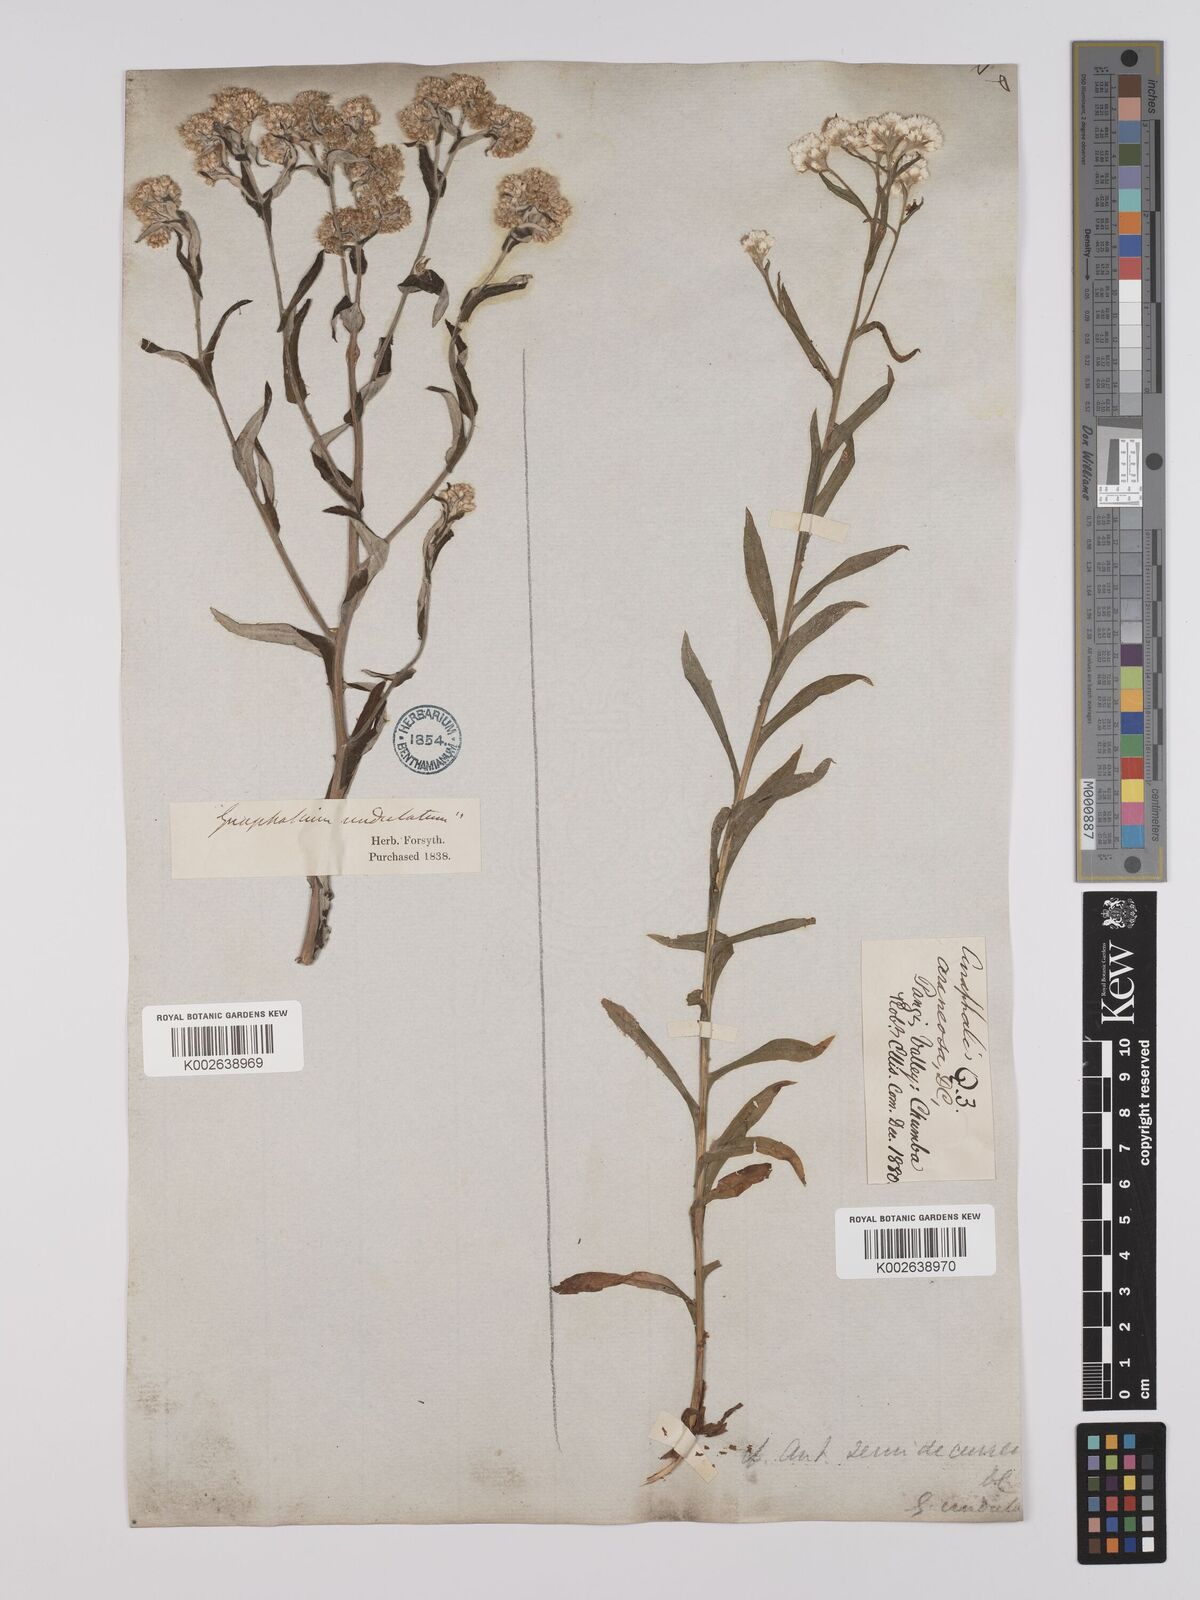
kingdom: Plantae
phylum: Tracheophyta
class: Magnoliopsida
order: Asterales
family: Asteraceae
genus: Anaphalis
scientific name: Anaphalis busua
